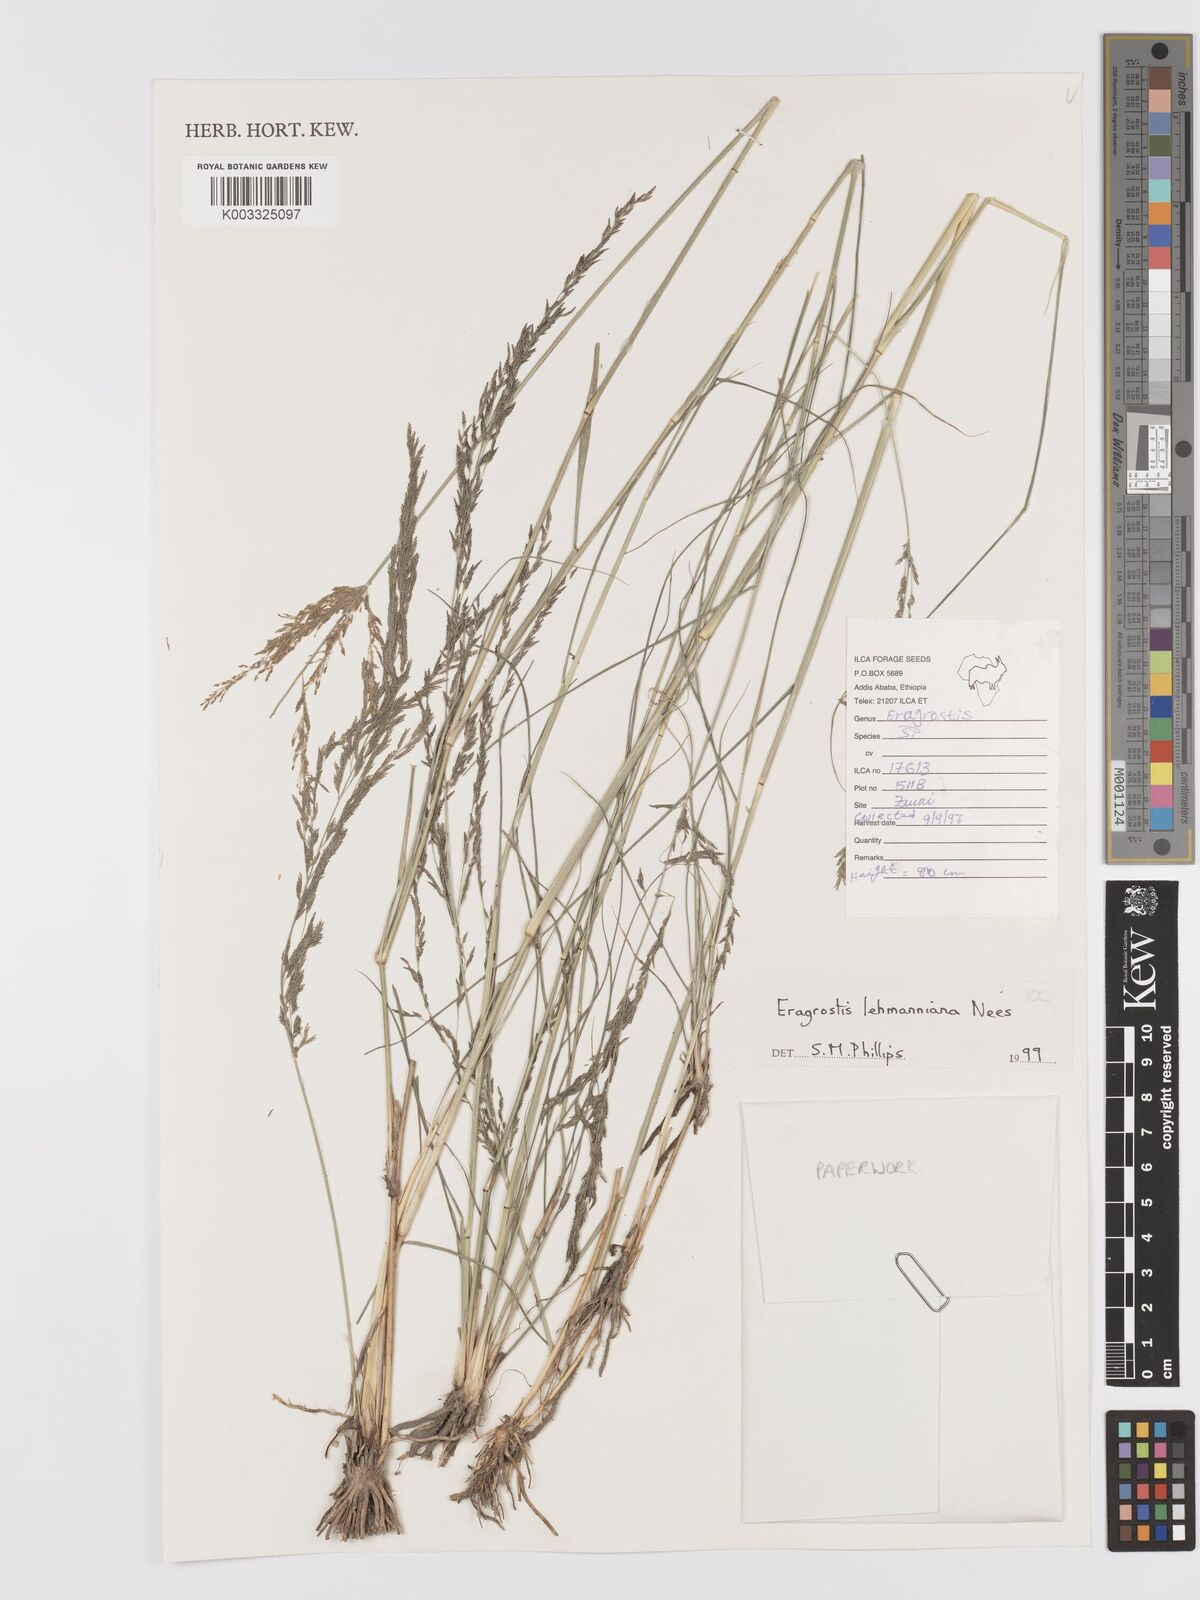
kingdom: Plantae
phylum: Tracheophyta
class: Liliopsida
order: Poales
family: Poaceae
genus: Eragrostis
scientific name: Eragrostis lehmanniana
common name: Lehmann lovegrass
